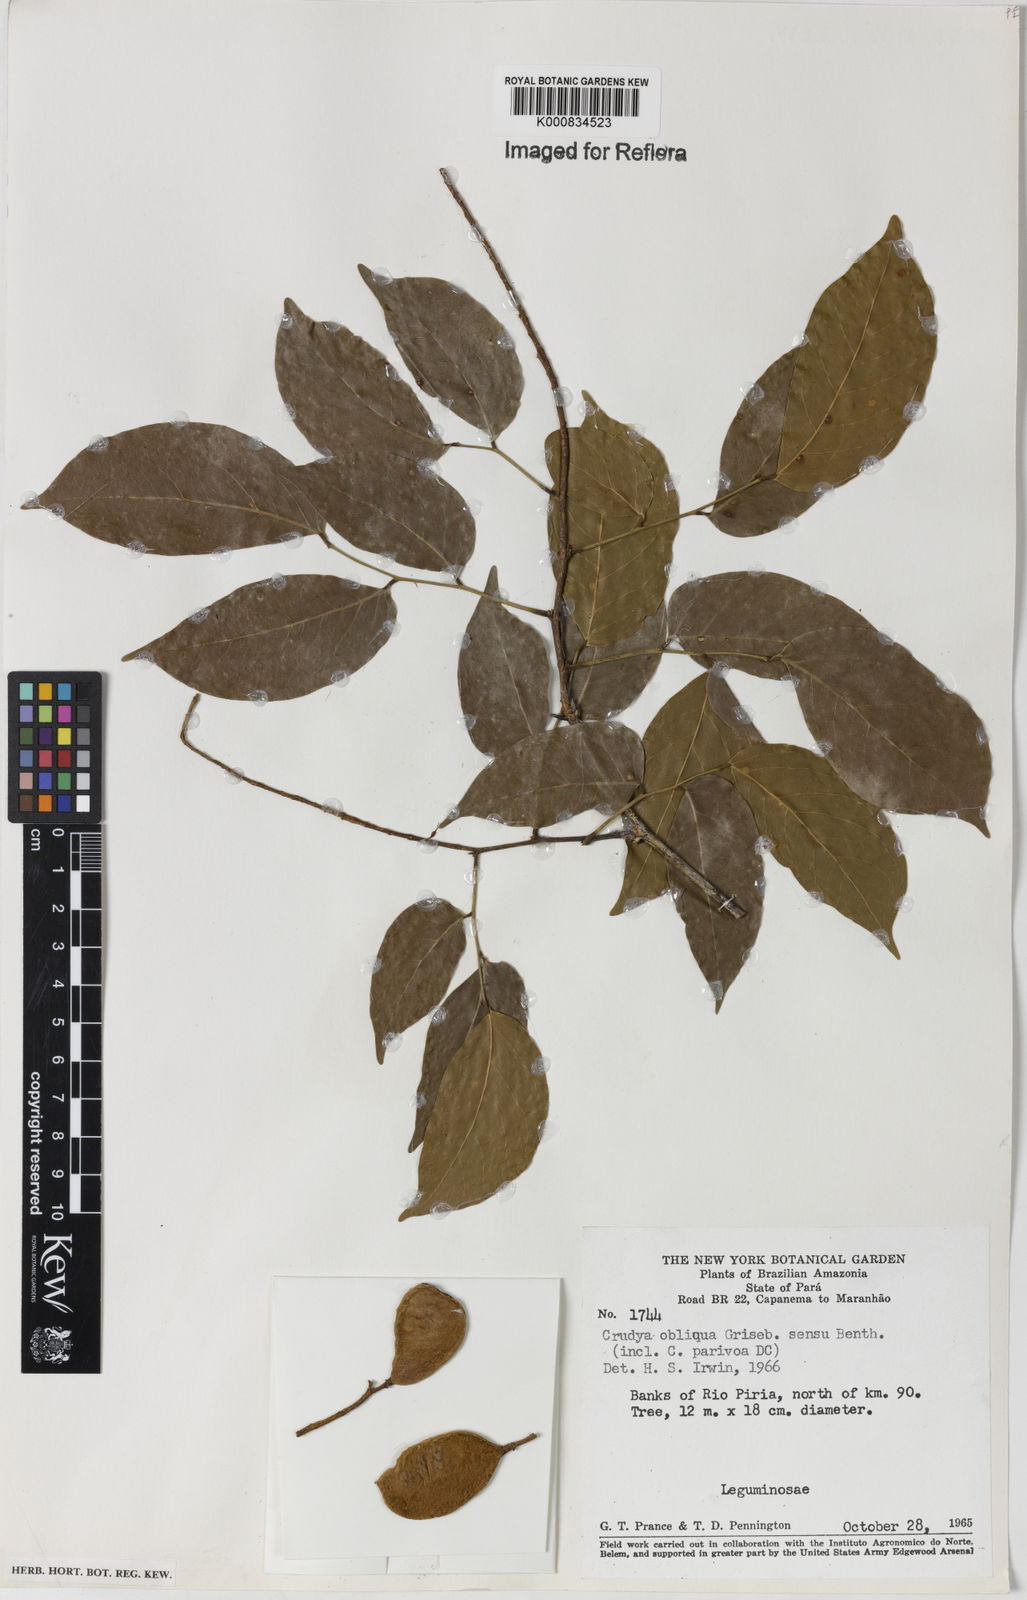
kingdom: Plantae
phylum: Tracheophyta
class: Magnoliopsida
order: Fabales
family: Fabaceae
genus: Crudia
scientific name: Crudia glaberrima
